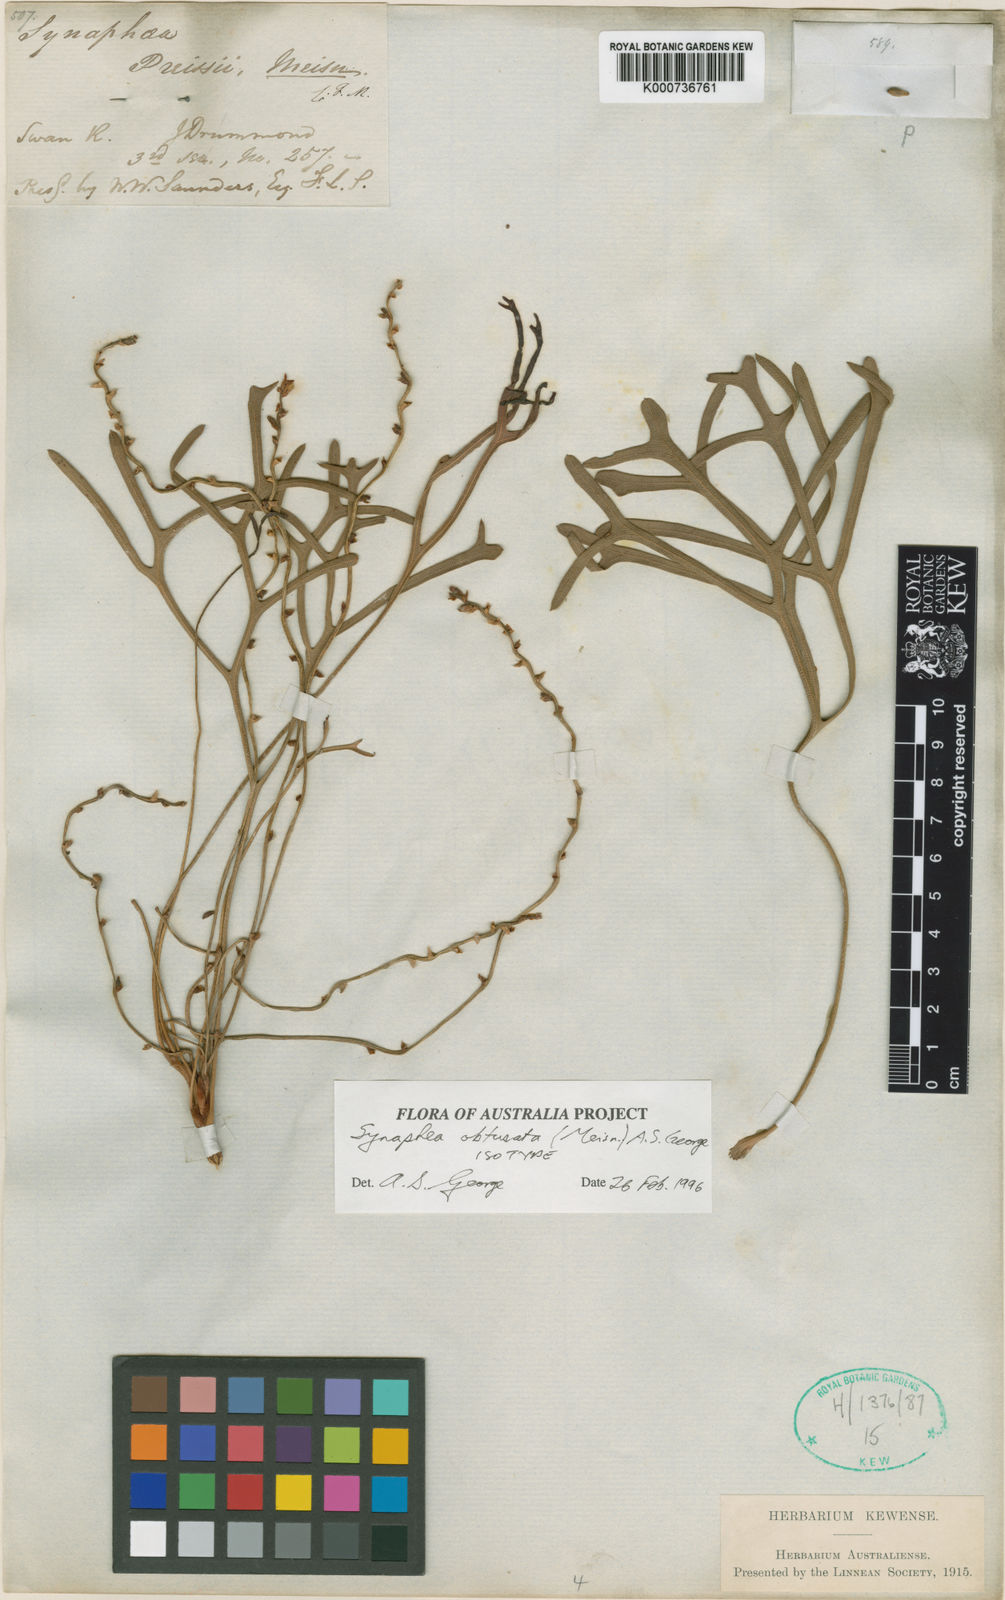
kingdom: Plantae
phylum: Tracheophyta
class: Magnoliopsida
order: Proteales
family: Proteaceae
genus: Synaphea
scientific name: Synaphea obtusata
